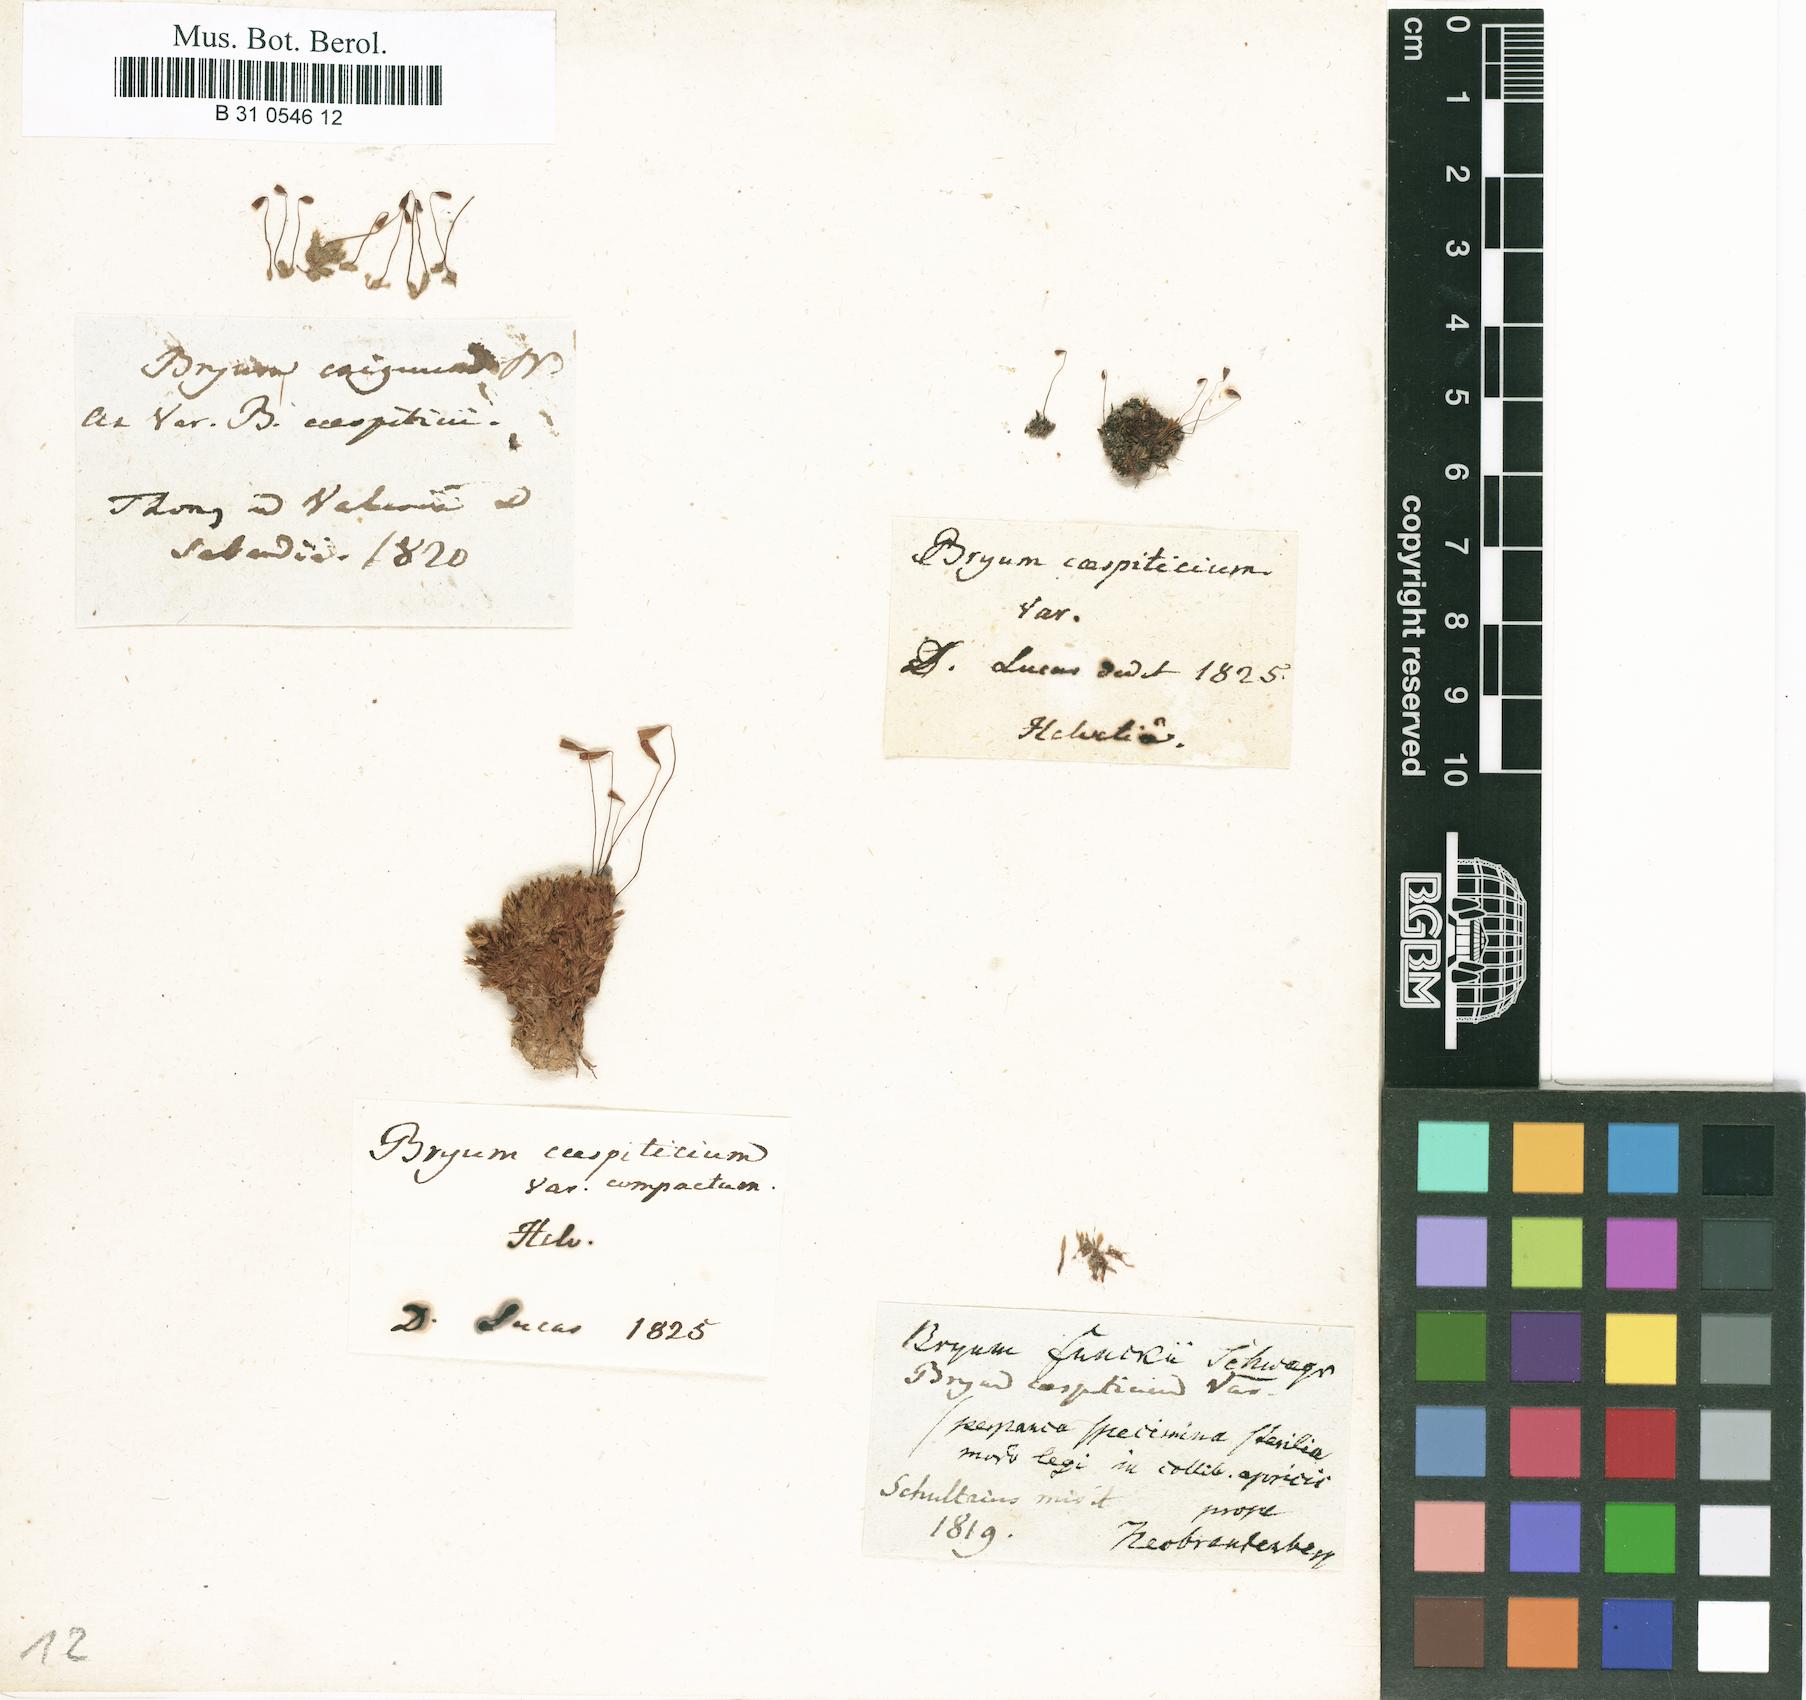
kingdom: Plantae
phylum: Bryophyta
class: Bryopsida
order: Bryales
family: Bryaceae
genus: Gemmabryum
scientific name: Gemmabryum caespiticium
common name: Handbell moss
